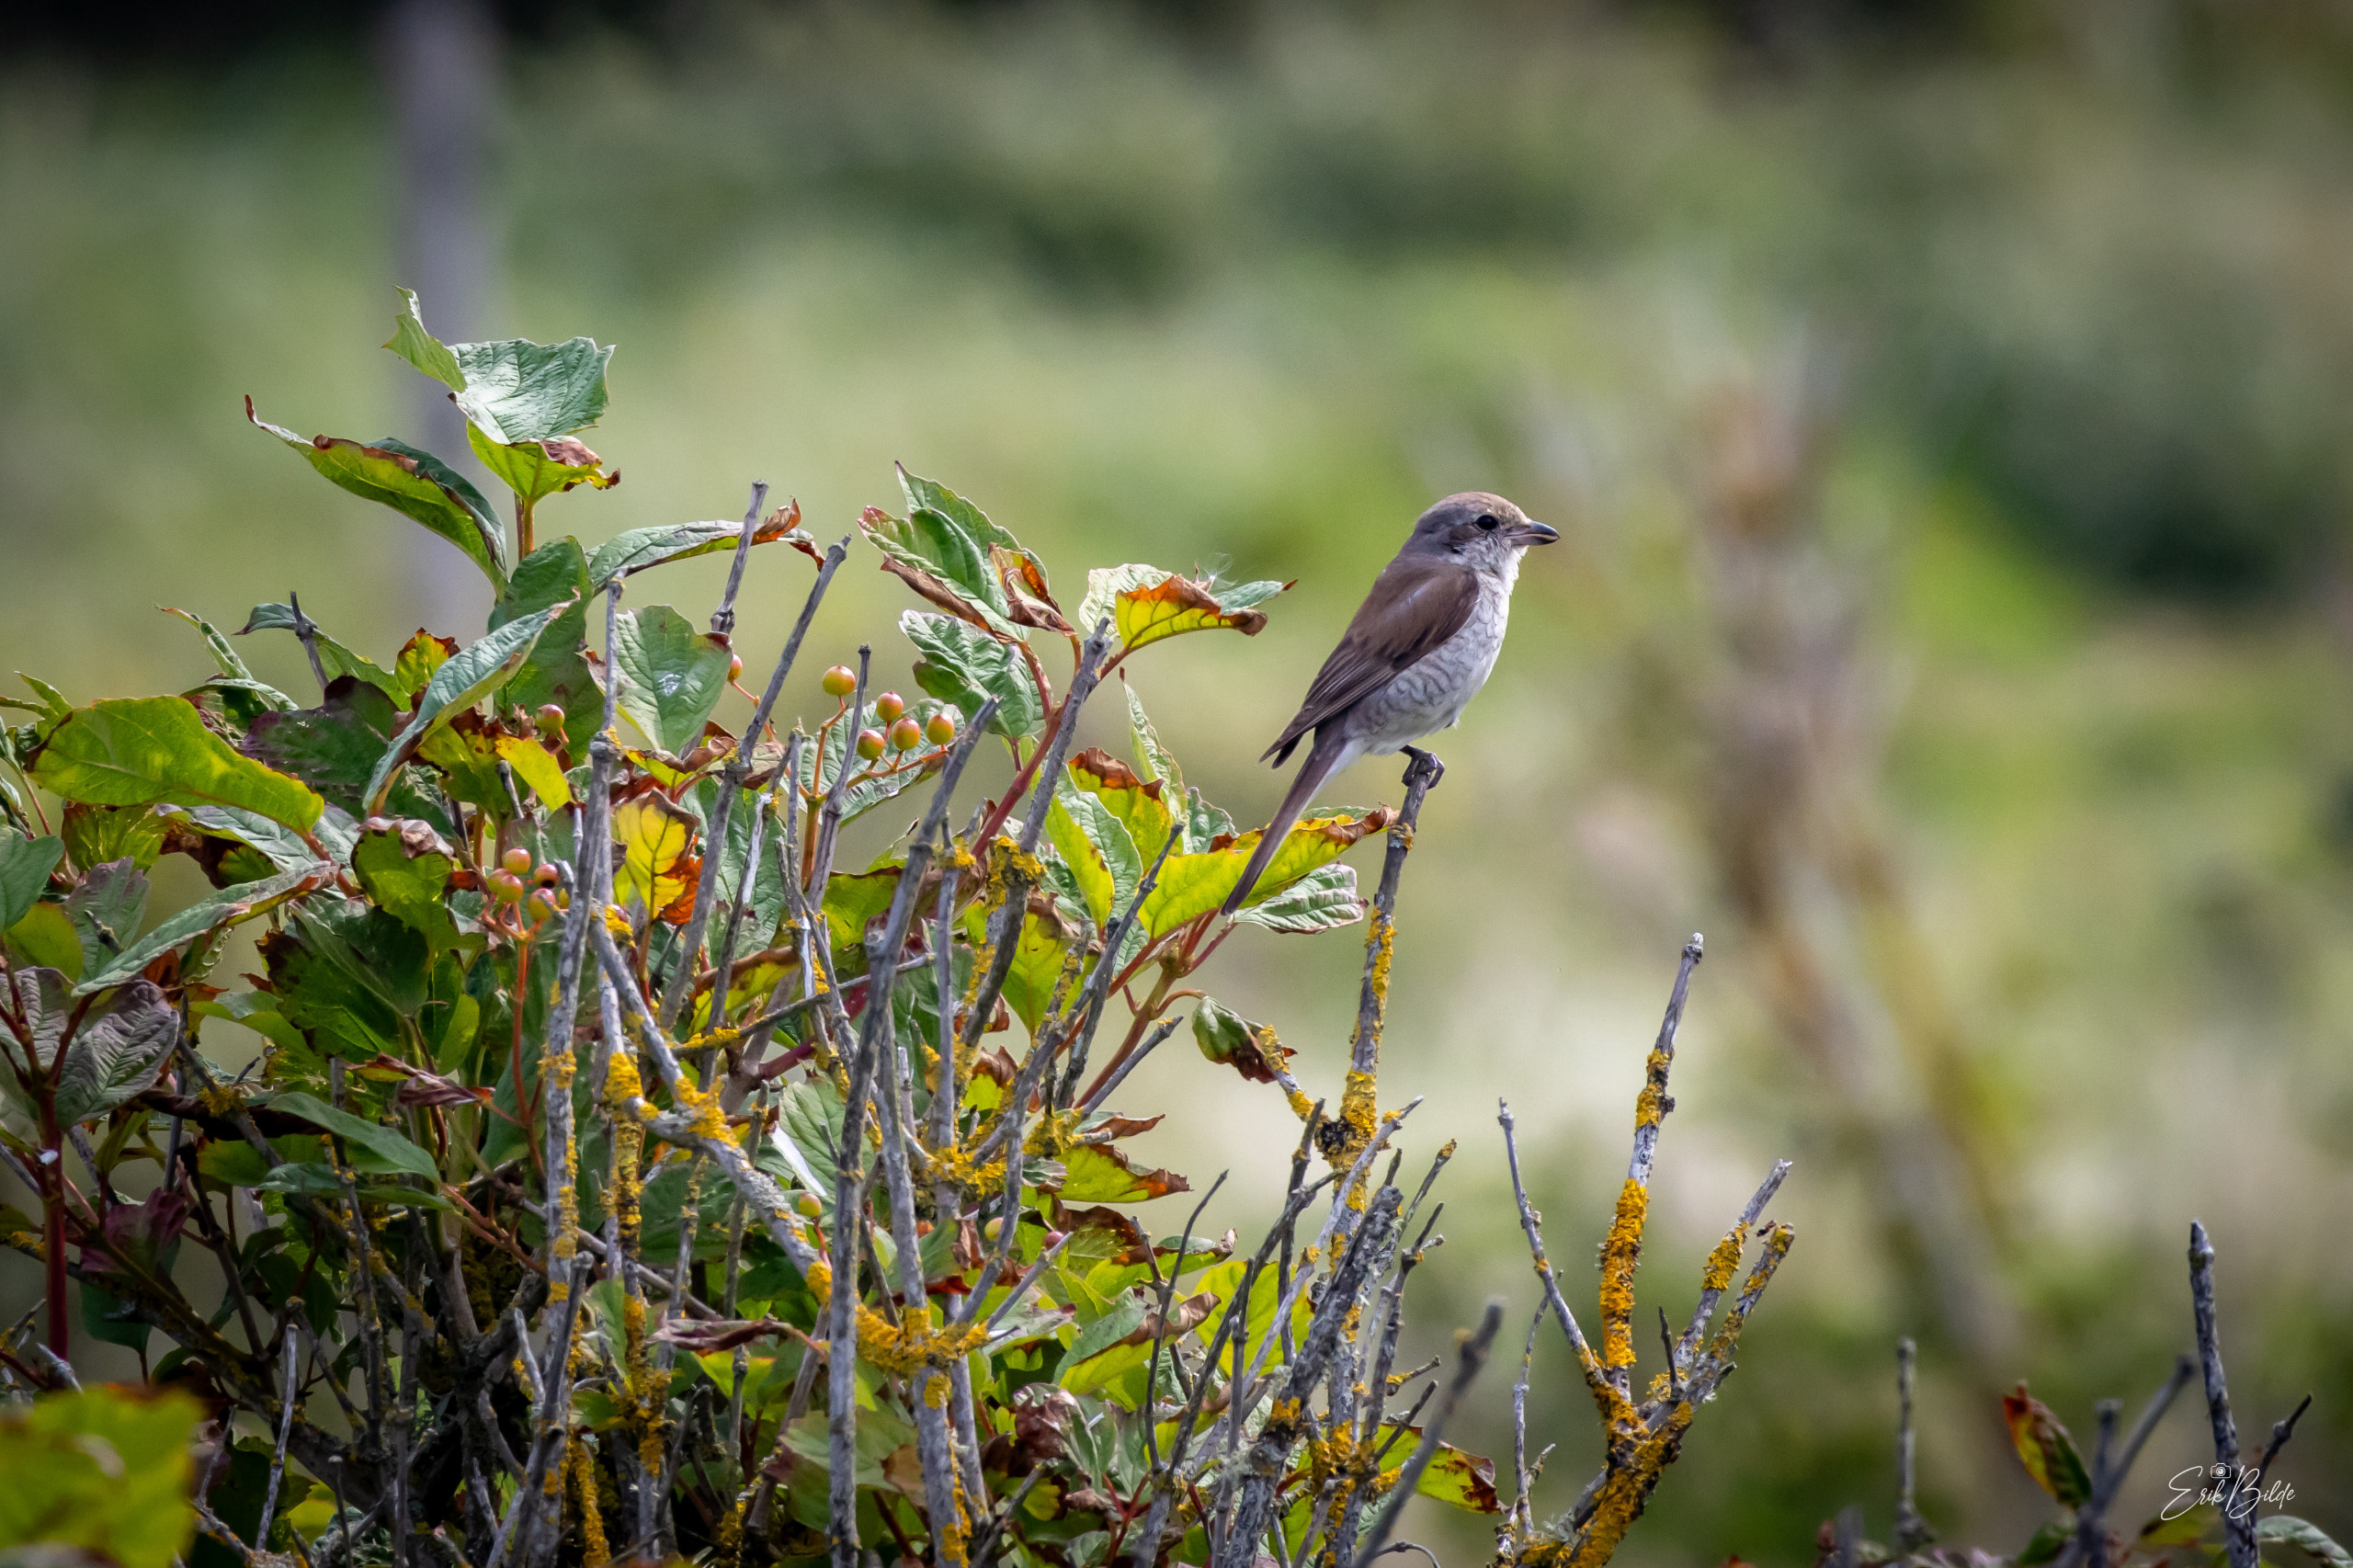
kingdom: Animalia
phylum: Chordata
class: Aves
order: Passeriformes
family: Laniidae
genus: Lanius
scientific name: Lanius collurio
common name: Rødrygget tornskade
